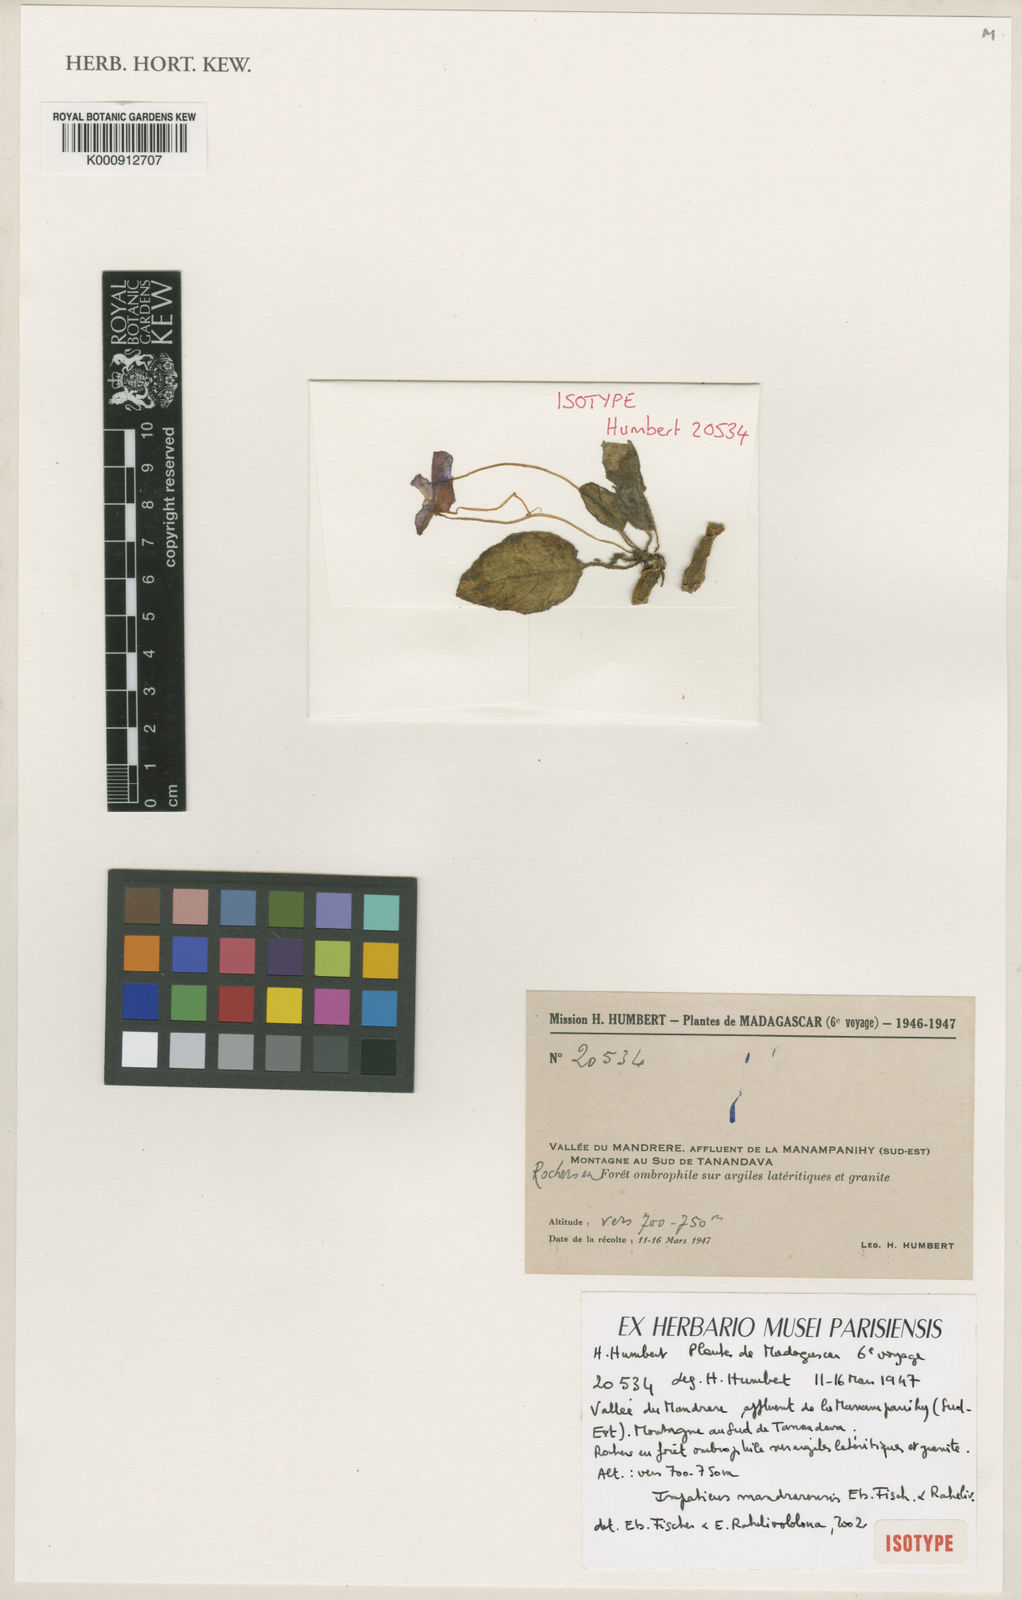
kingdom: Plantae
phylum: Tracheophyta
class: Magnoliopsida
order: Ericales
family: Balsaminaceae
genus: Impatiens
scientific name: Impatiens mandrarensis
